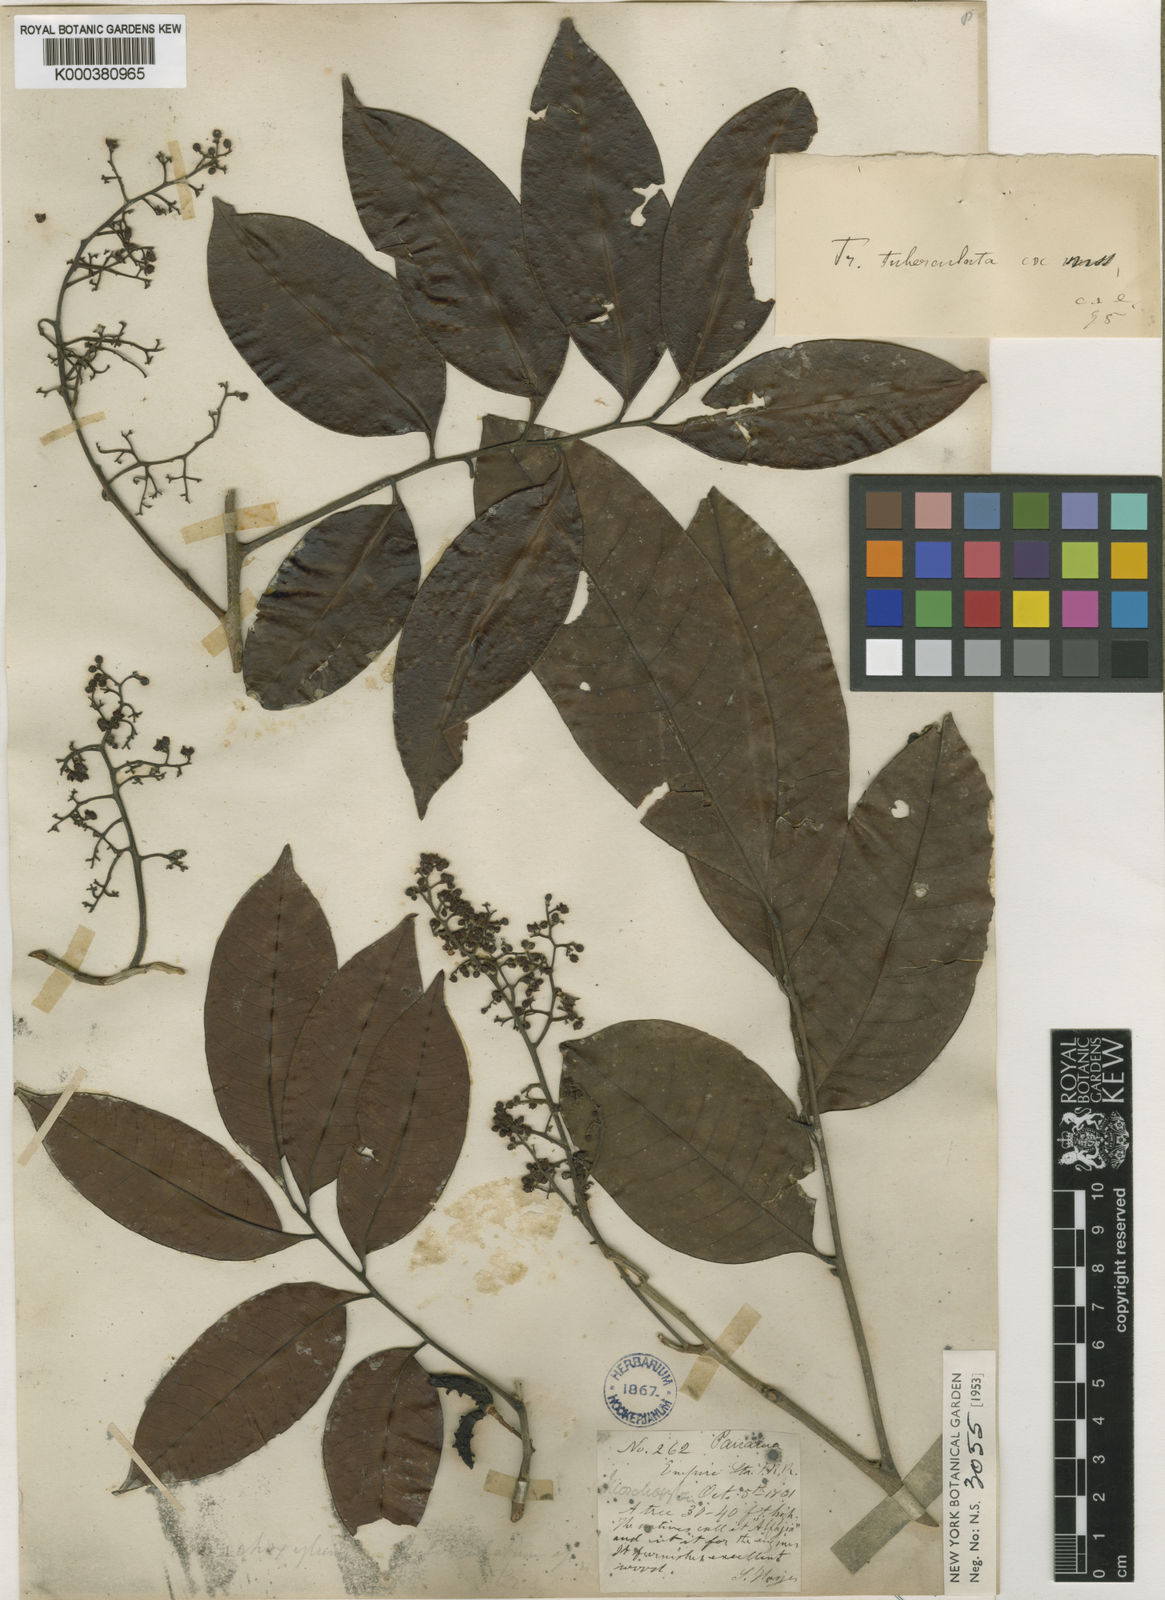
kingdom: Plantae
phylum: Tracheophyta
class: Magnoliopsida
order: Sapindales
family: Meliaceae
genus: Trichilia
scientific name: Trichilia tuberculata
